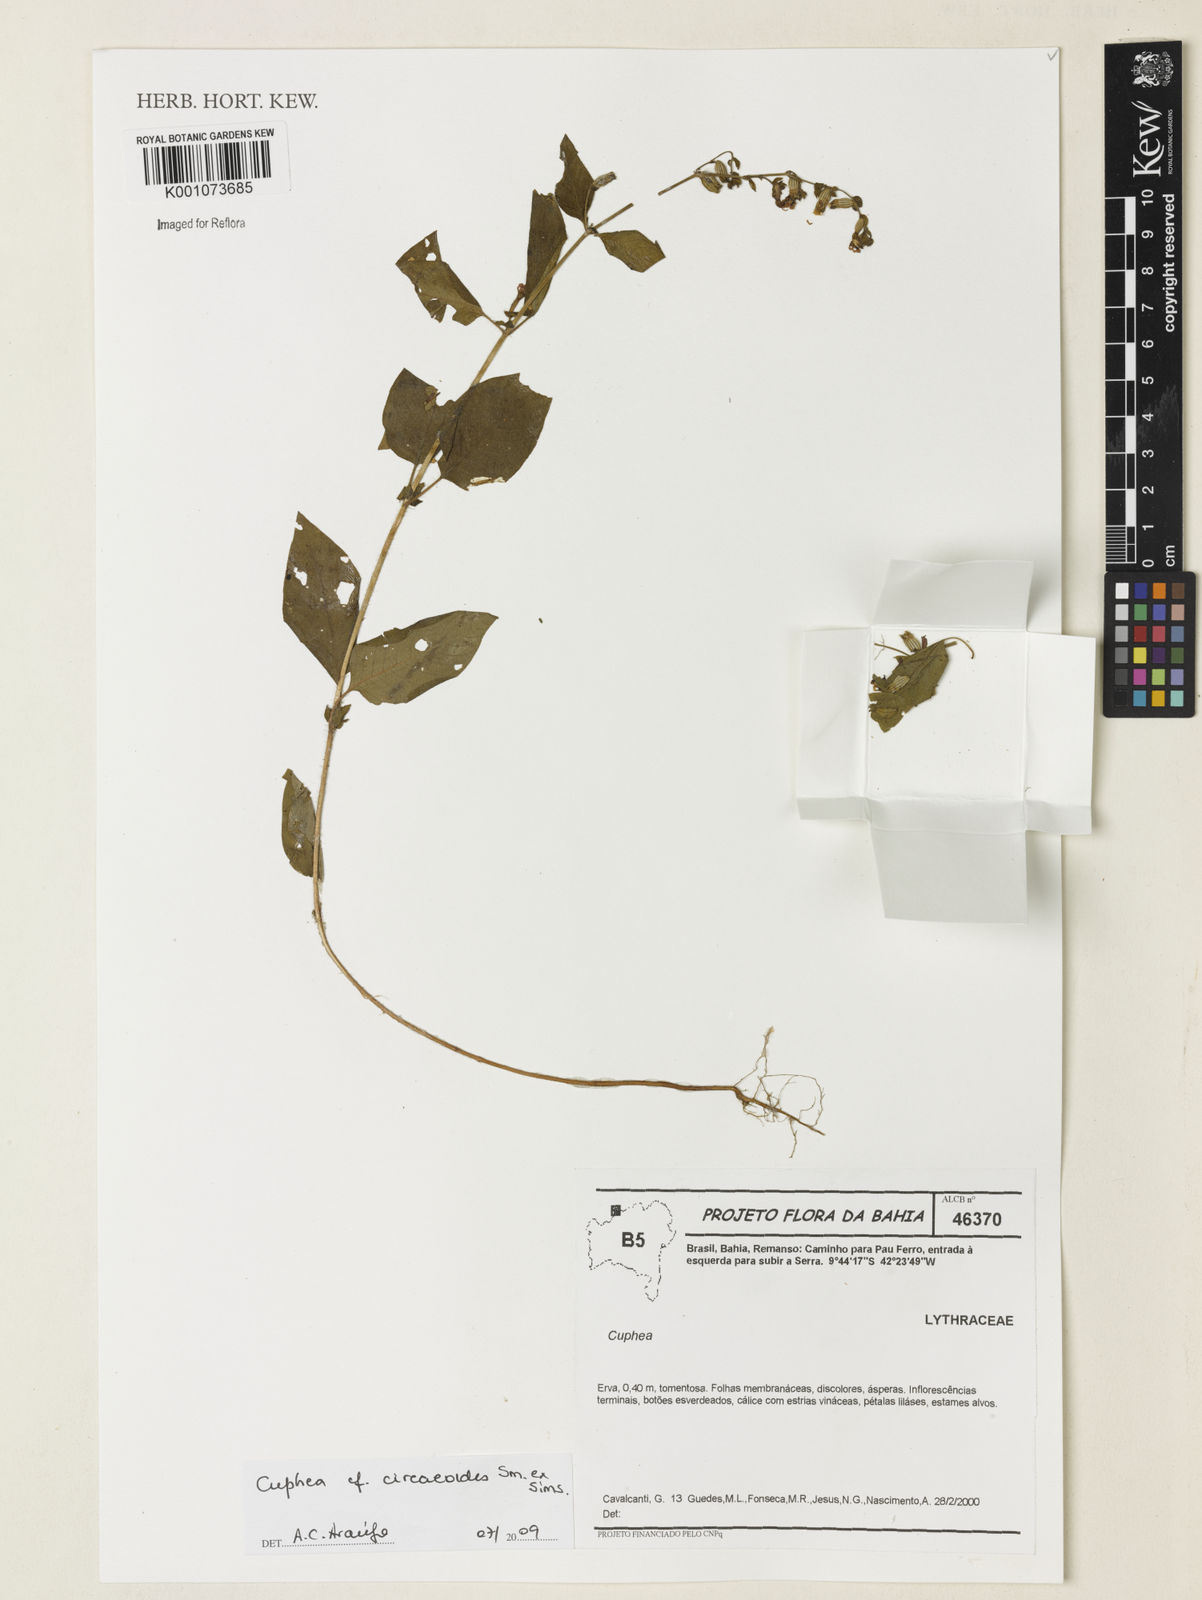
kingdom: Plantae
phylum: Tracheophyta
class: Magnoliopsida
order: Myrtales
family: Lythraceae
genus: Cuphea
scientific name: Cuphea circaeoides
